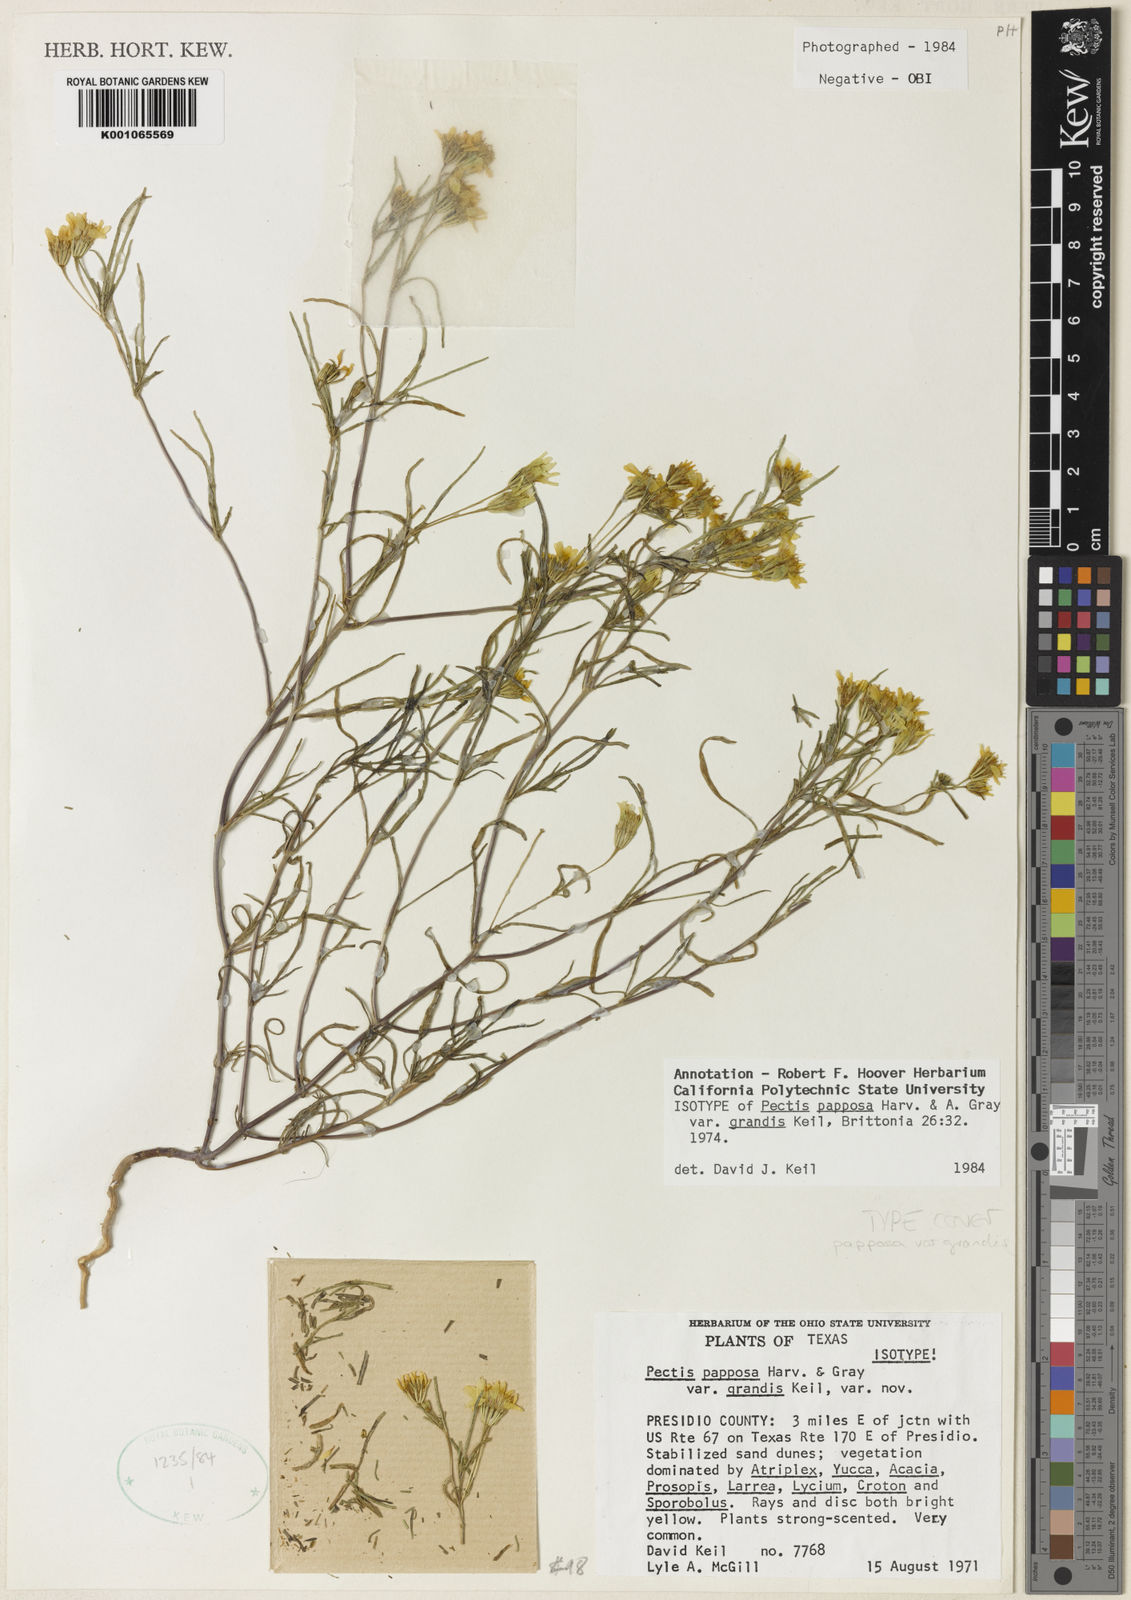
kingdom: Plantae
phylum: Tracheophyta
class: Magnoliopsida
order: Asterales
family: Asteraceae
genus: Pectis
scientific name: Pectis papposa
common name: Many-bristle chinchweed
